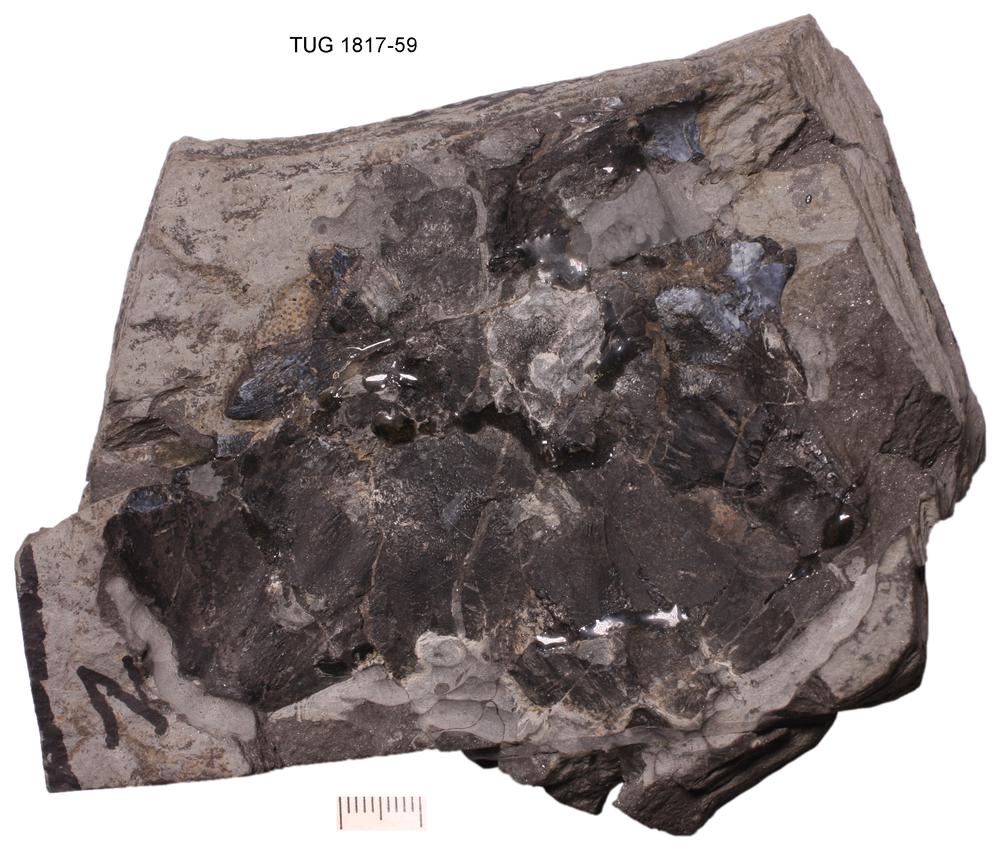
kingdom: Animalia
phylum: Chordata
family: Coccosteidae
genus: Dickosteus
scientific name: Dickosteus threiplandi
